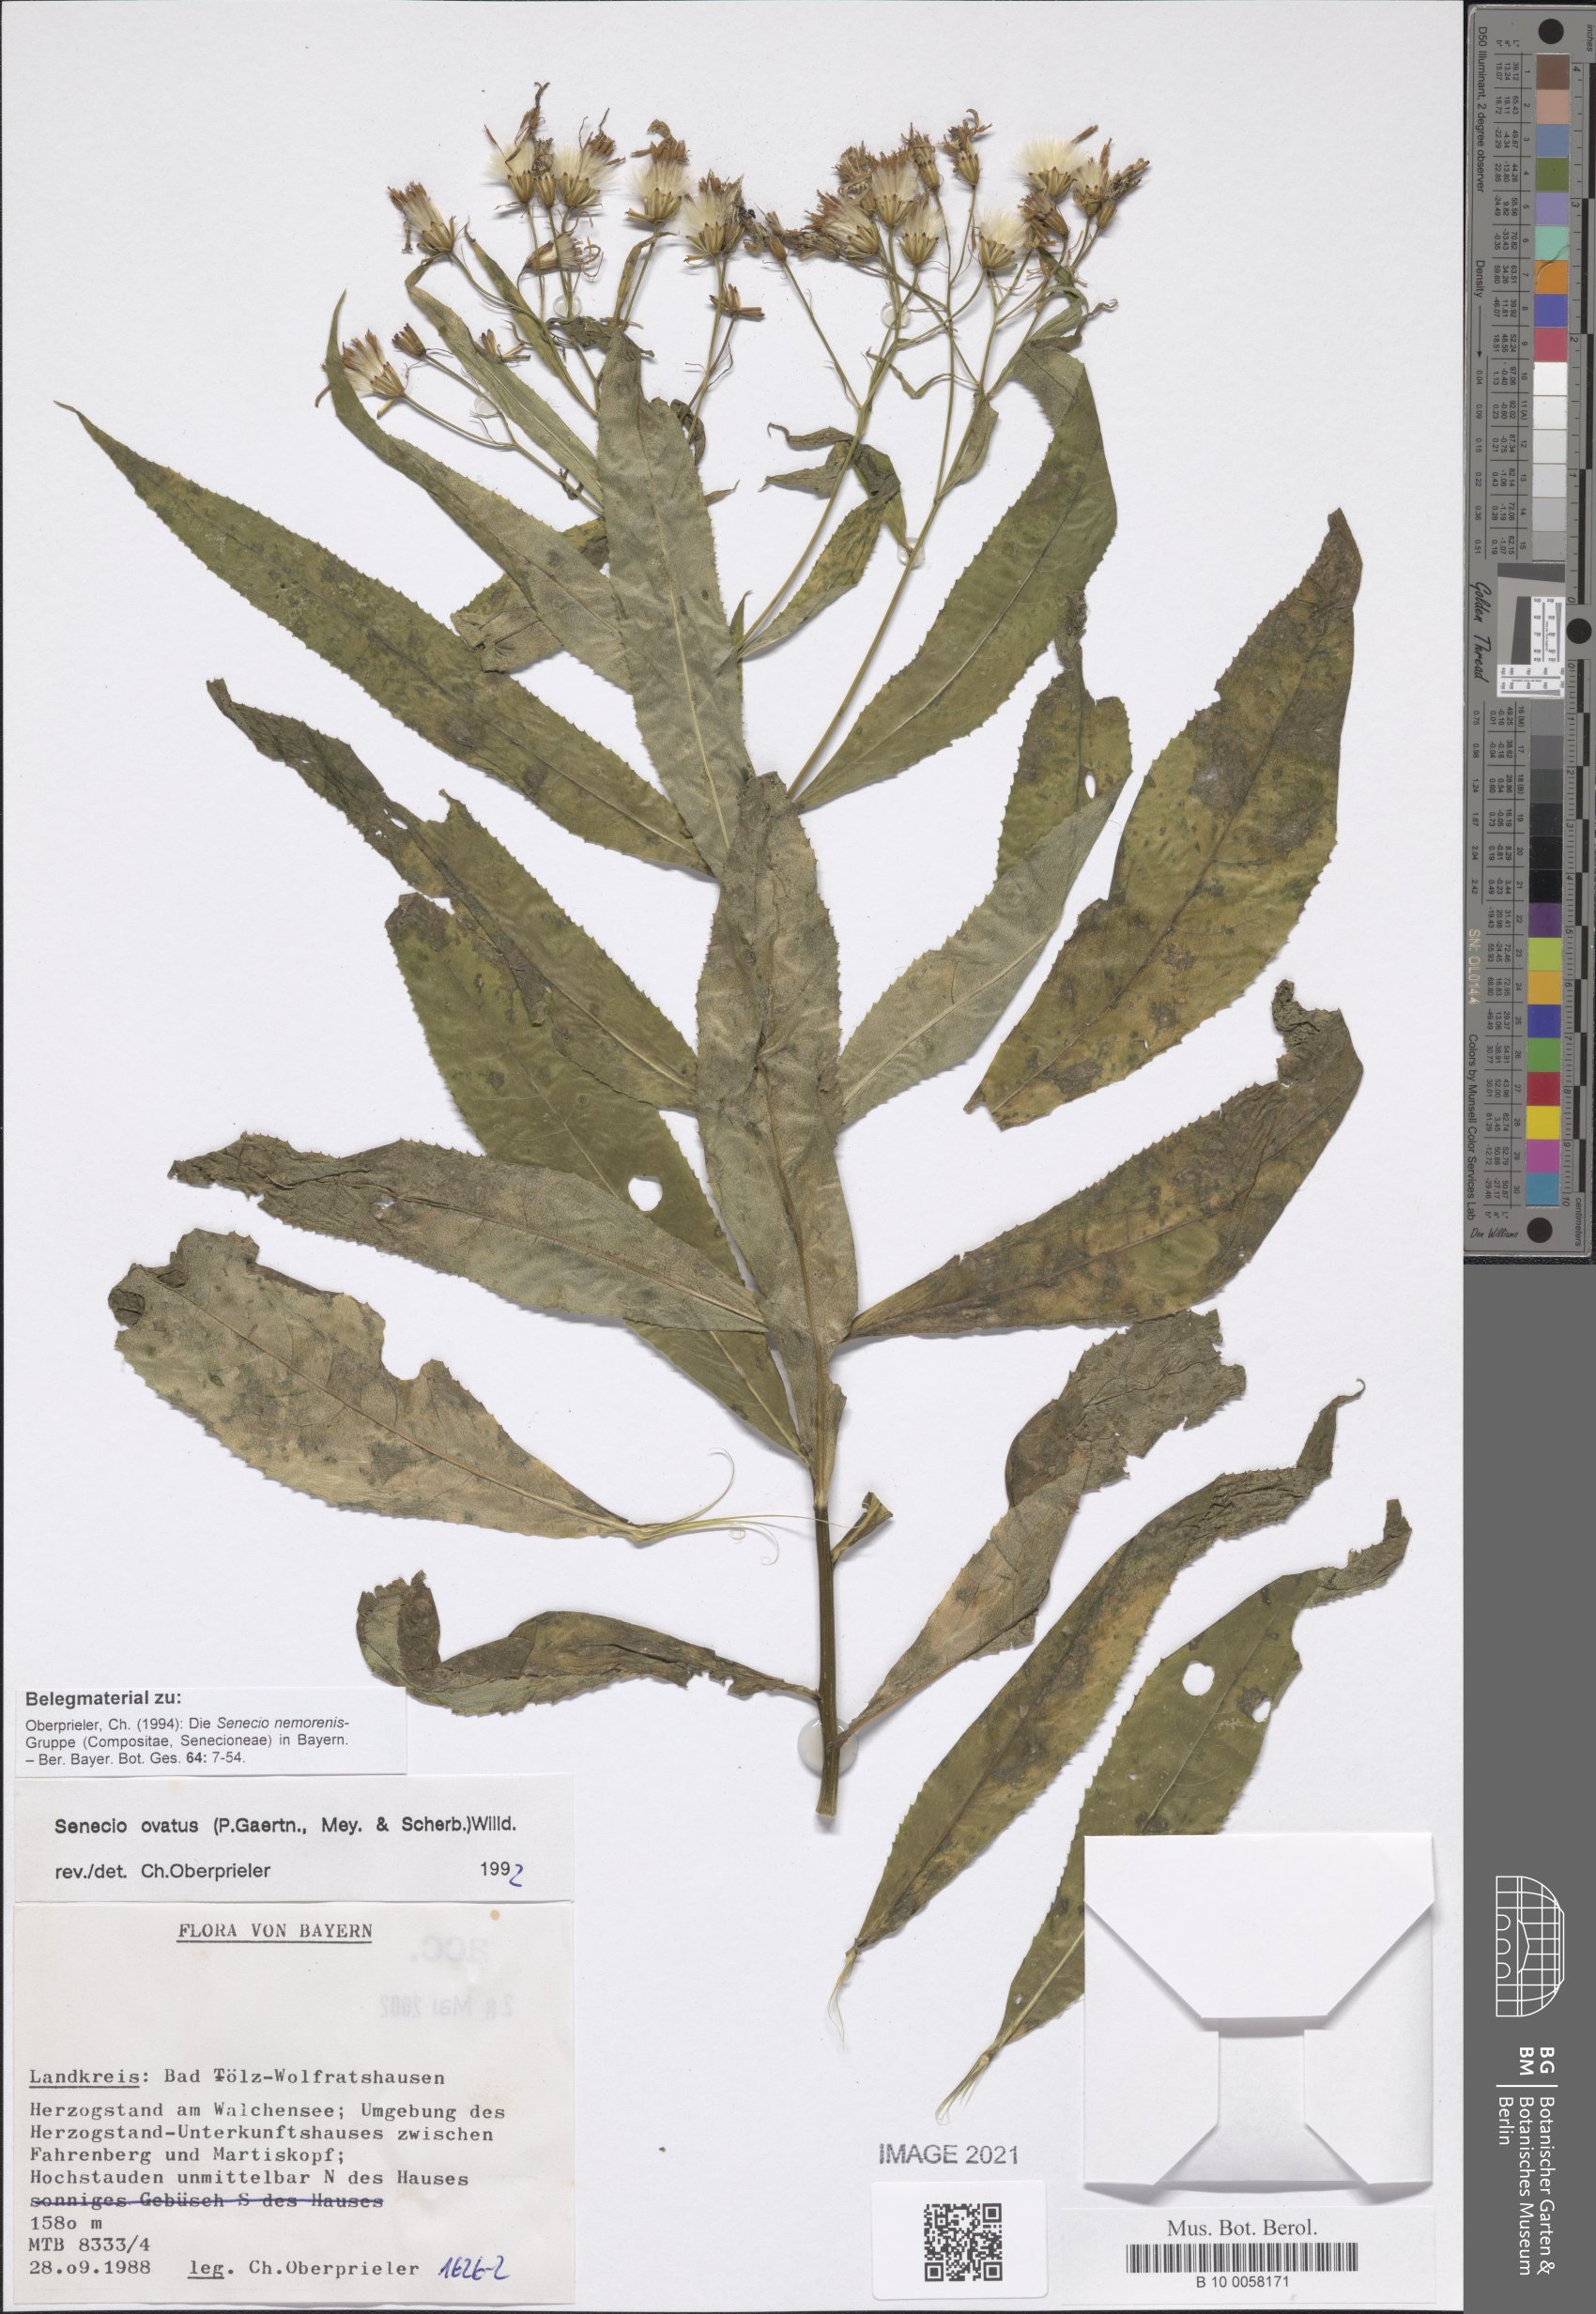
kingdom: Plantae
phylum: Tracheophyta
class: Magnoliopsida
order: Asterales
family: Asteraceae
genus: Senecio
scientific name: Senecio ovatus
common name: Wood ragwort
